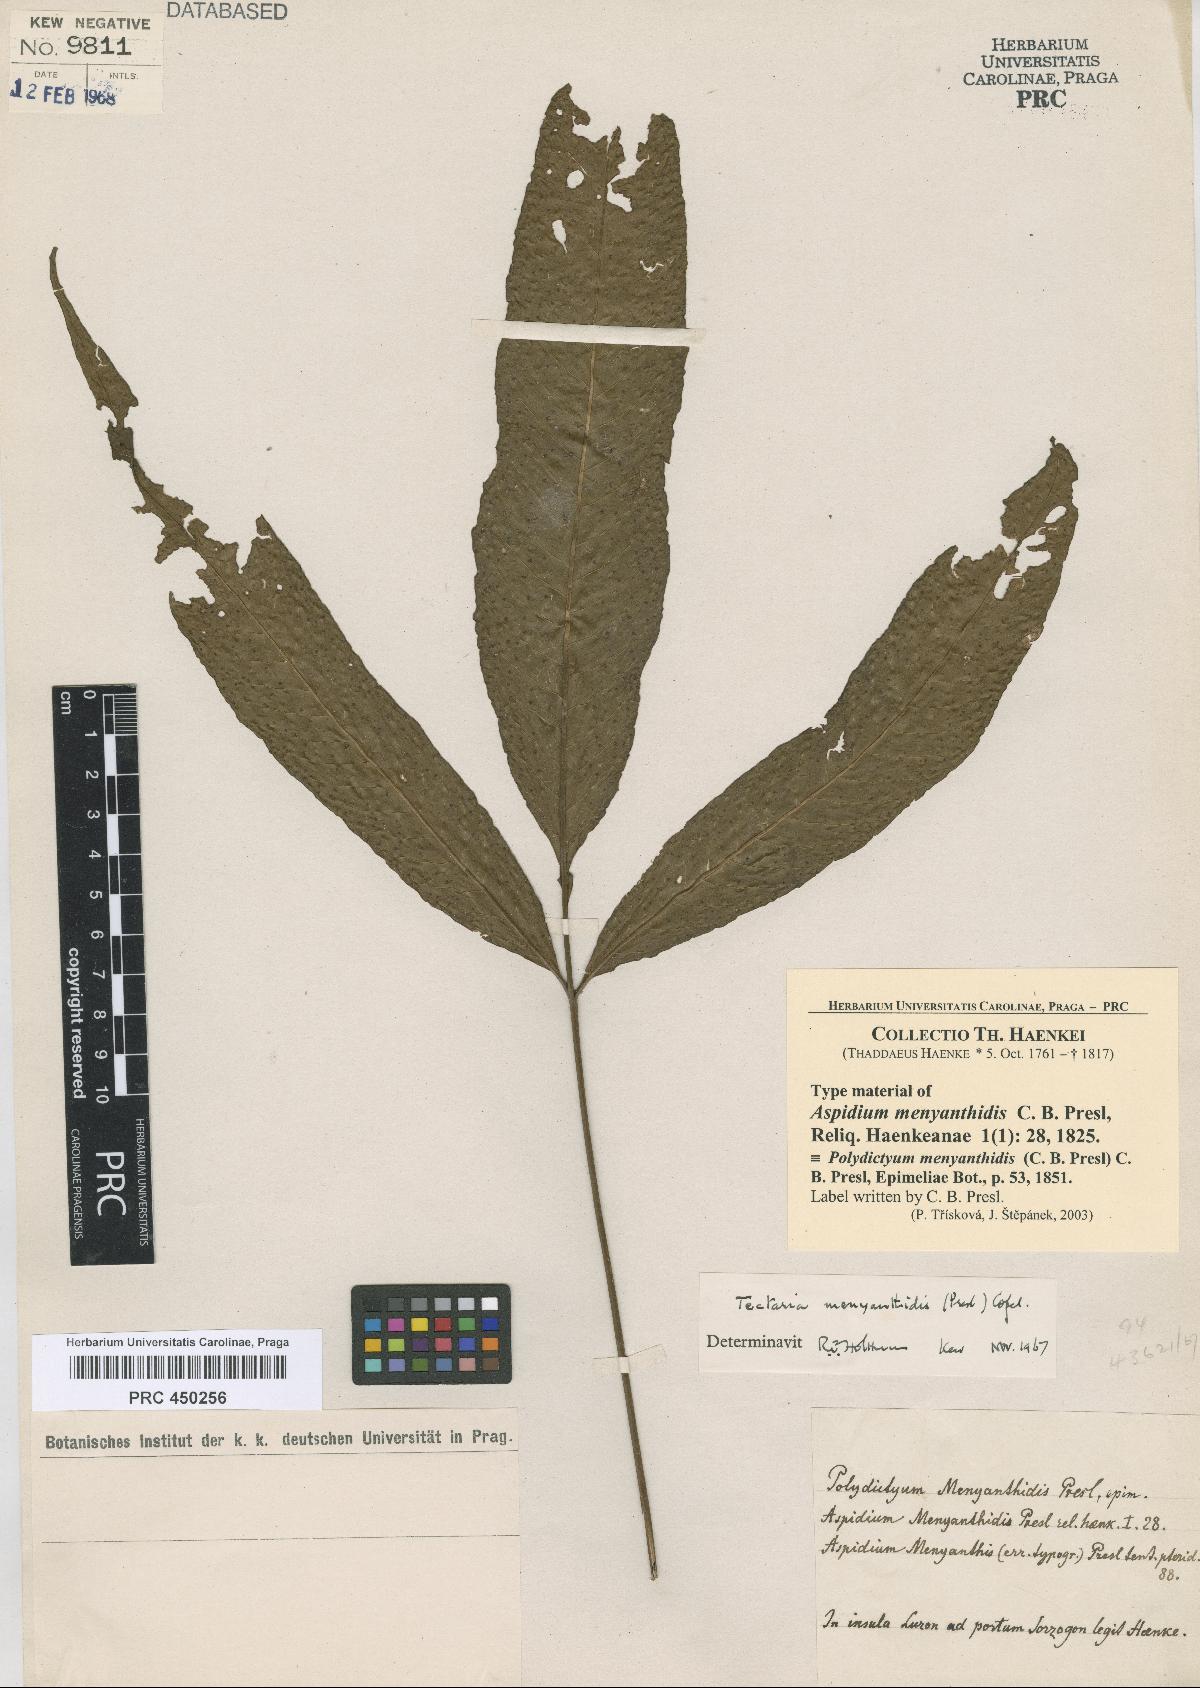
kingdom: Plantae
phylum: Tracheophyta
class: Polypodiopsida
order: Polypodiales
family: Tectariaceae
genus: Polydictyum
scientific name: Polydictyum menyanthidis
